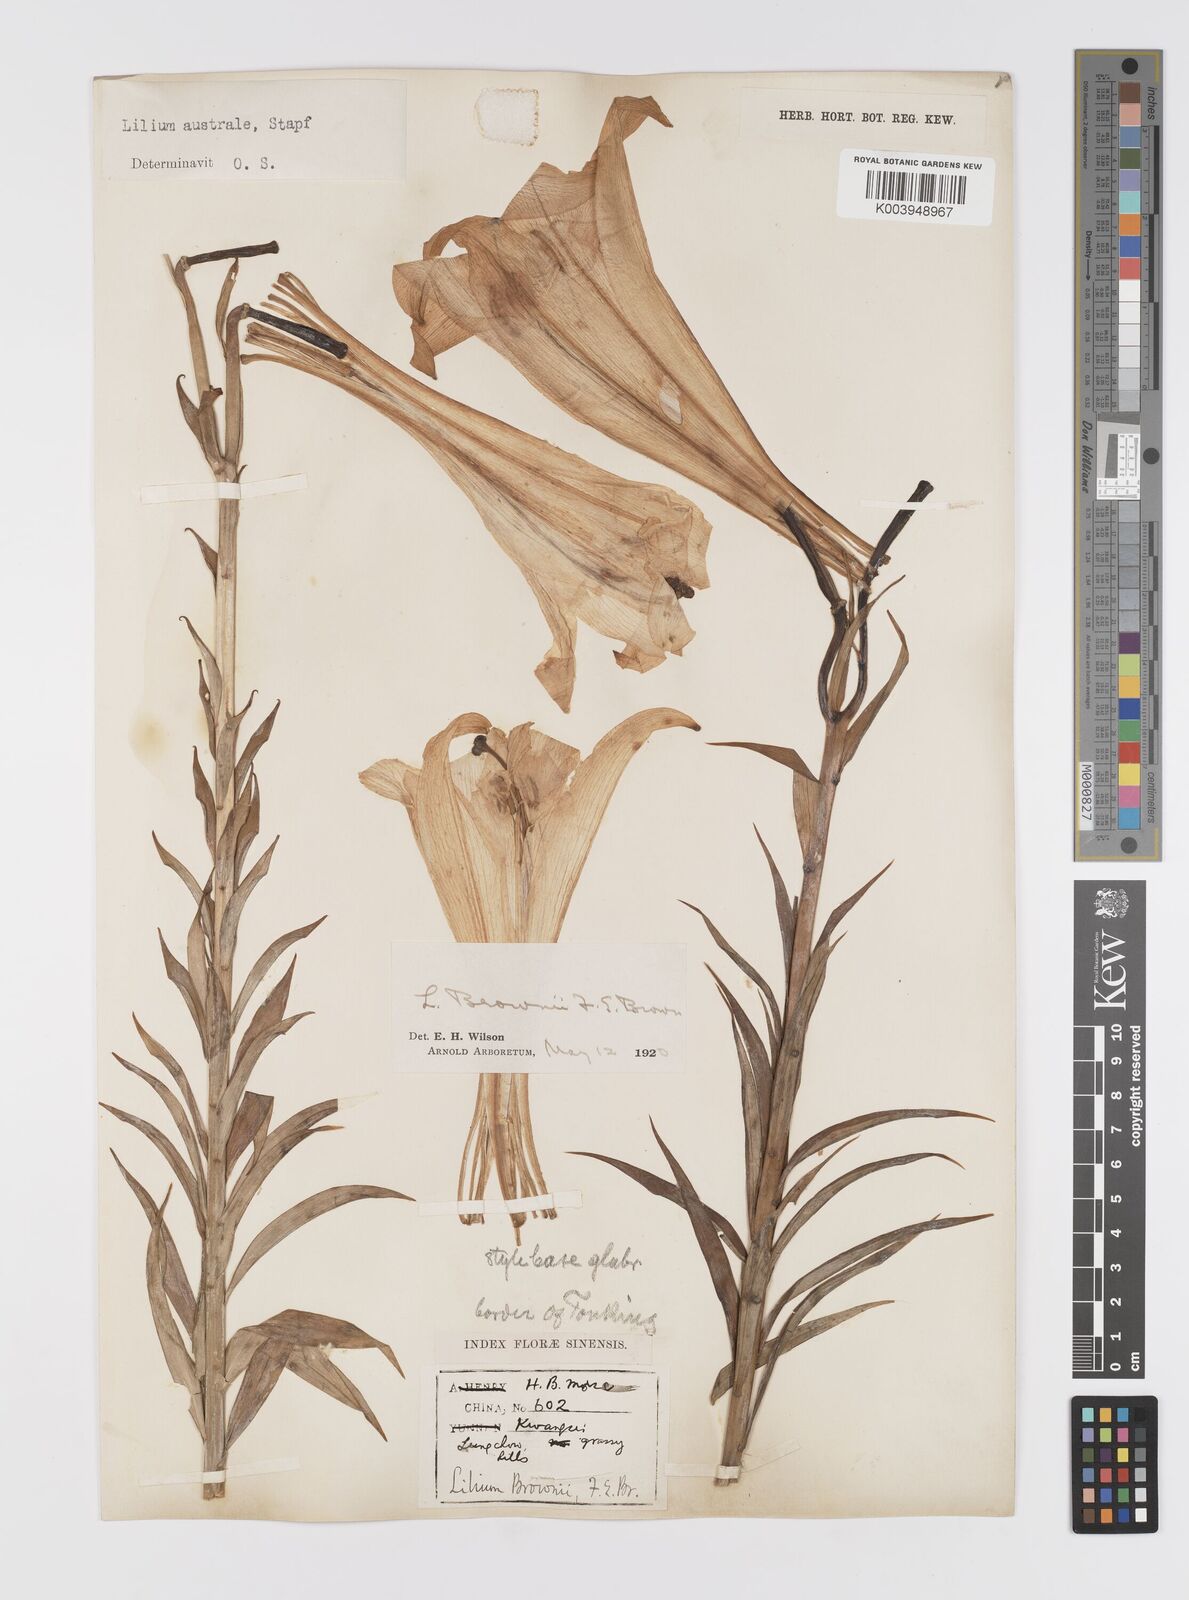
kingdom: Plantae
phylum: Tracheophyta
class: Liliopsida
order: Liliales
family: Liliaceae
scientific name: Liliaceae
